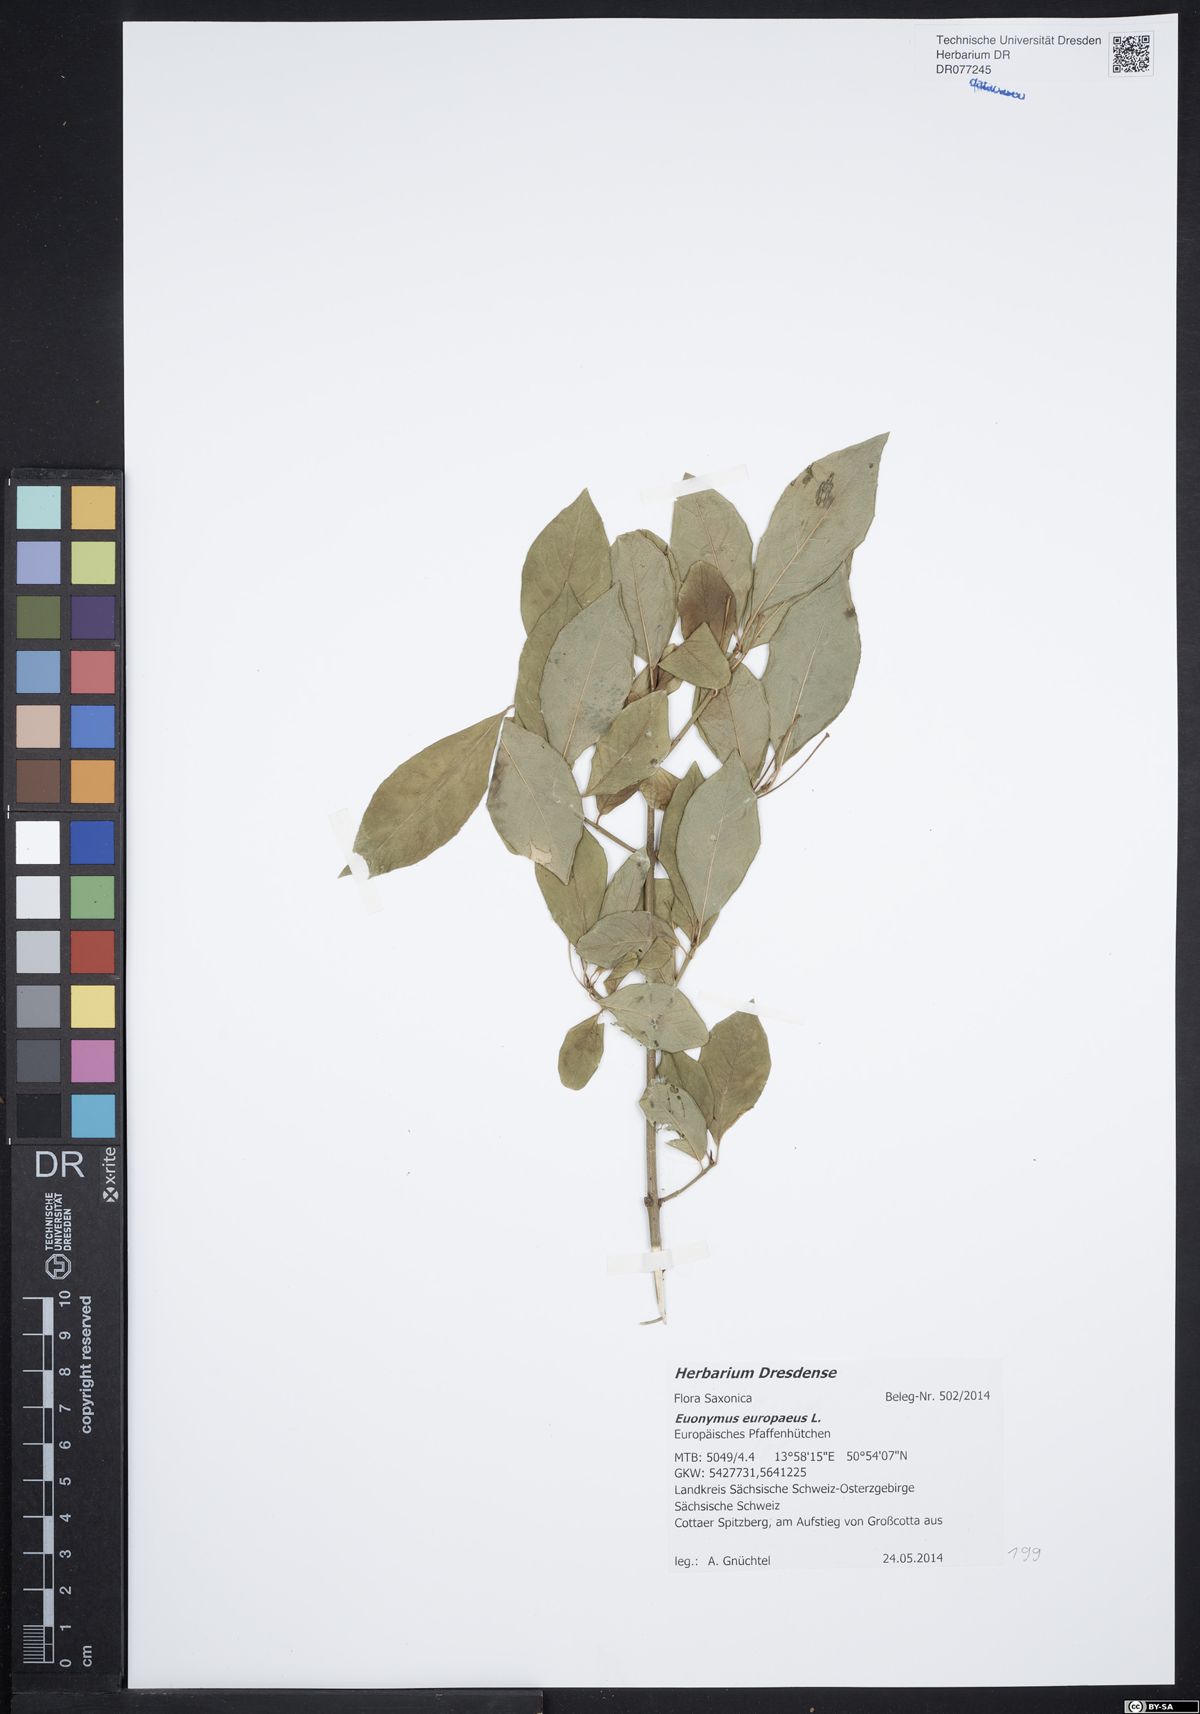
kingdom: Plantae
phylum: Tracheophyta
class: Magnoliopsida
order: Celastrales
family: Celastraceae
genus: Euonymus
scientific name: Euonymus europaeus
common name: Spindle
